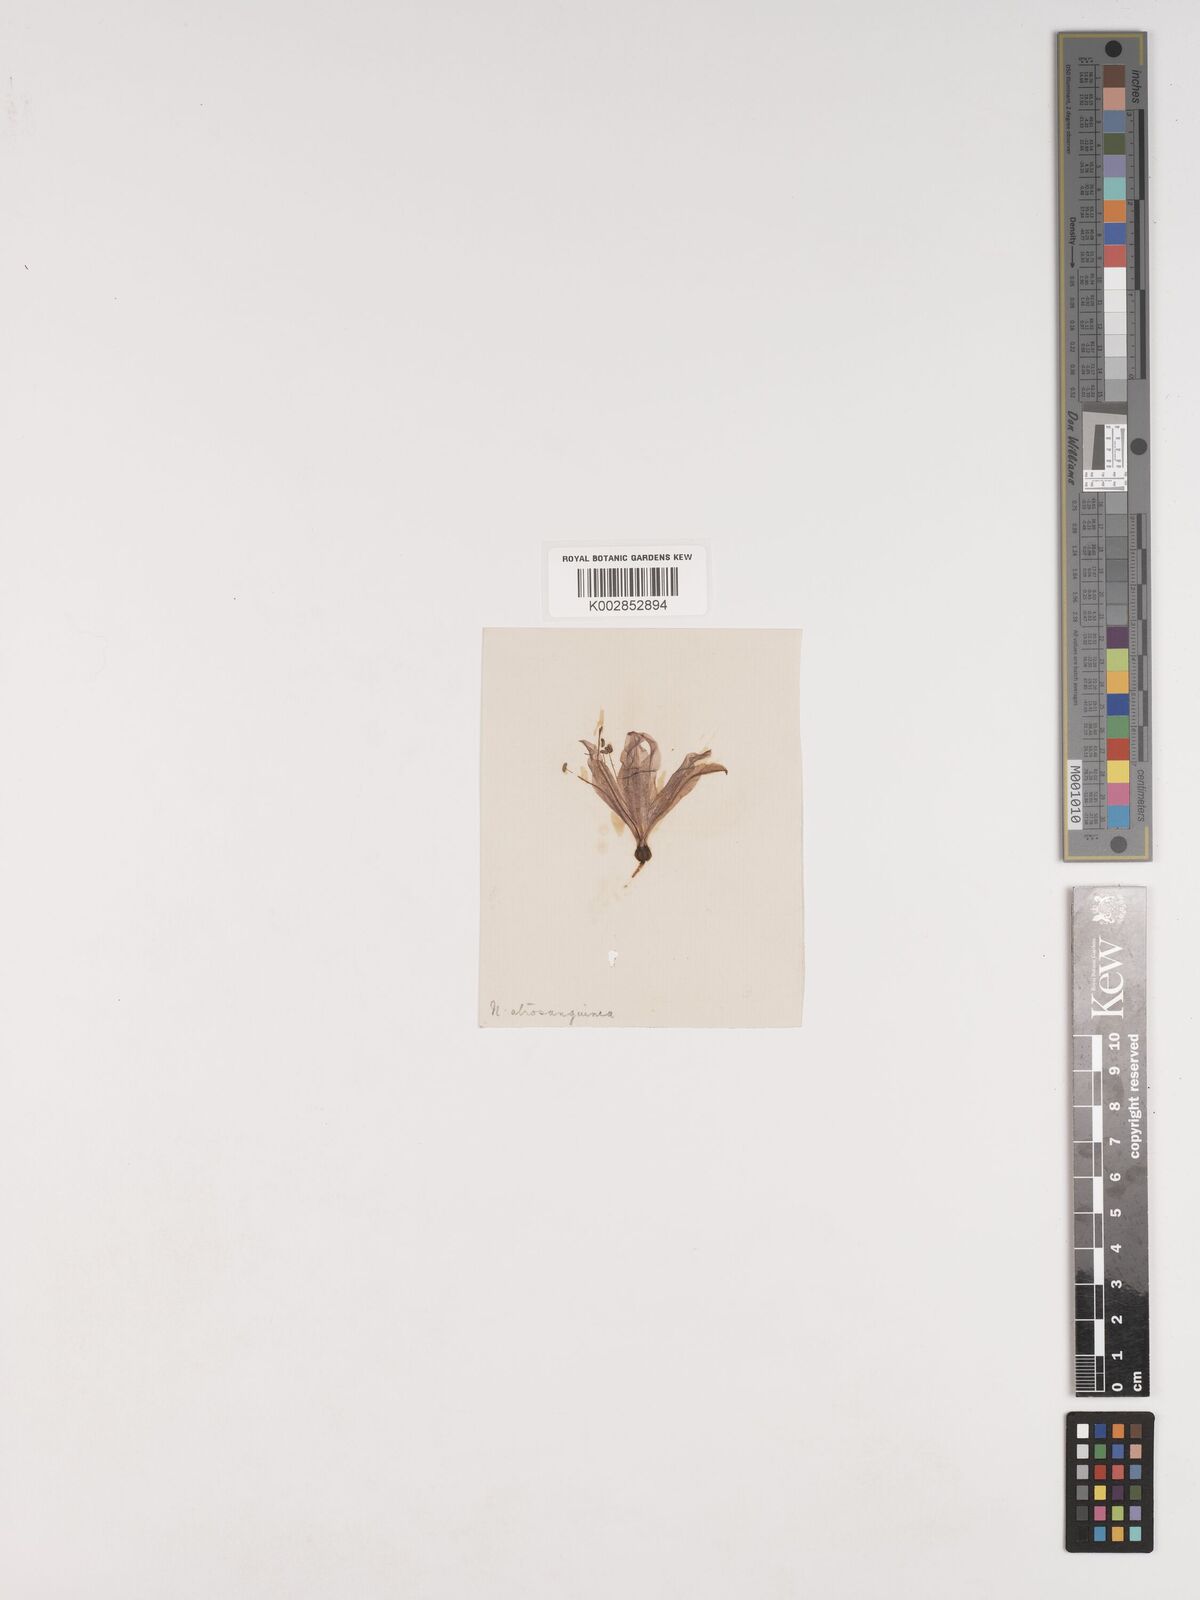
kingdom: Plantae
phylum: Tracheophyta
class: Liliopsida
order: Asparagales
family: Amaryllidaceae
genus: Nerine
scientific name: Nerine humilis
